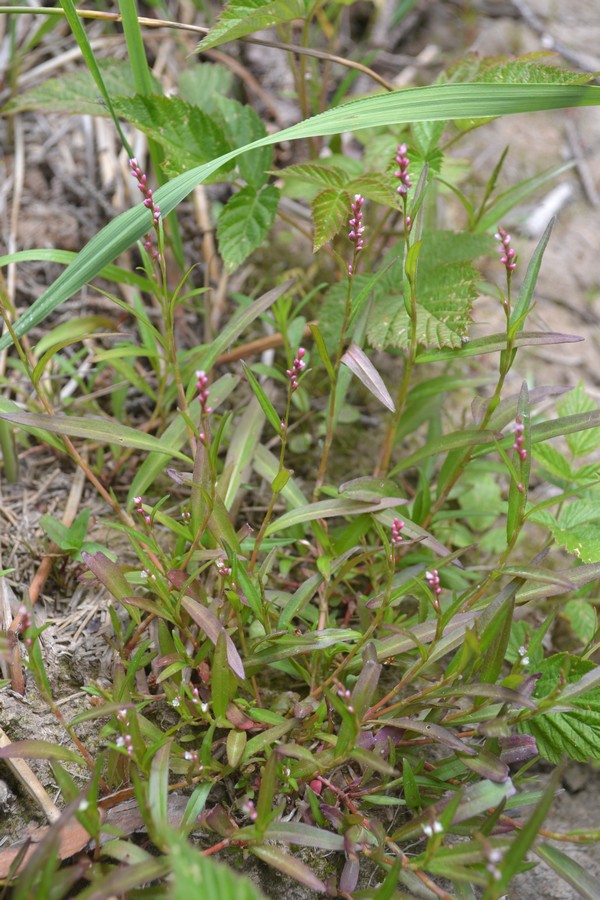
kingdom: Plantae
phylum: Tracheophyta
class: Magnoliopsida
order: Caryophyllales
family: Polygonaceae
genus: Persicaria
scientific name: Persicaria minor
